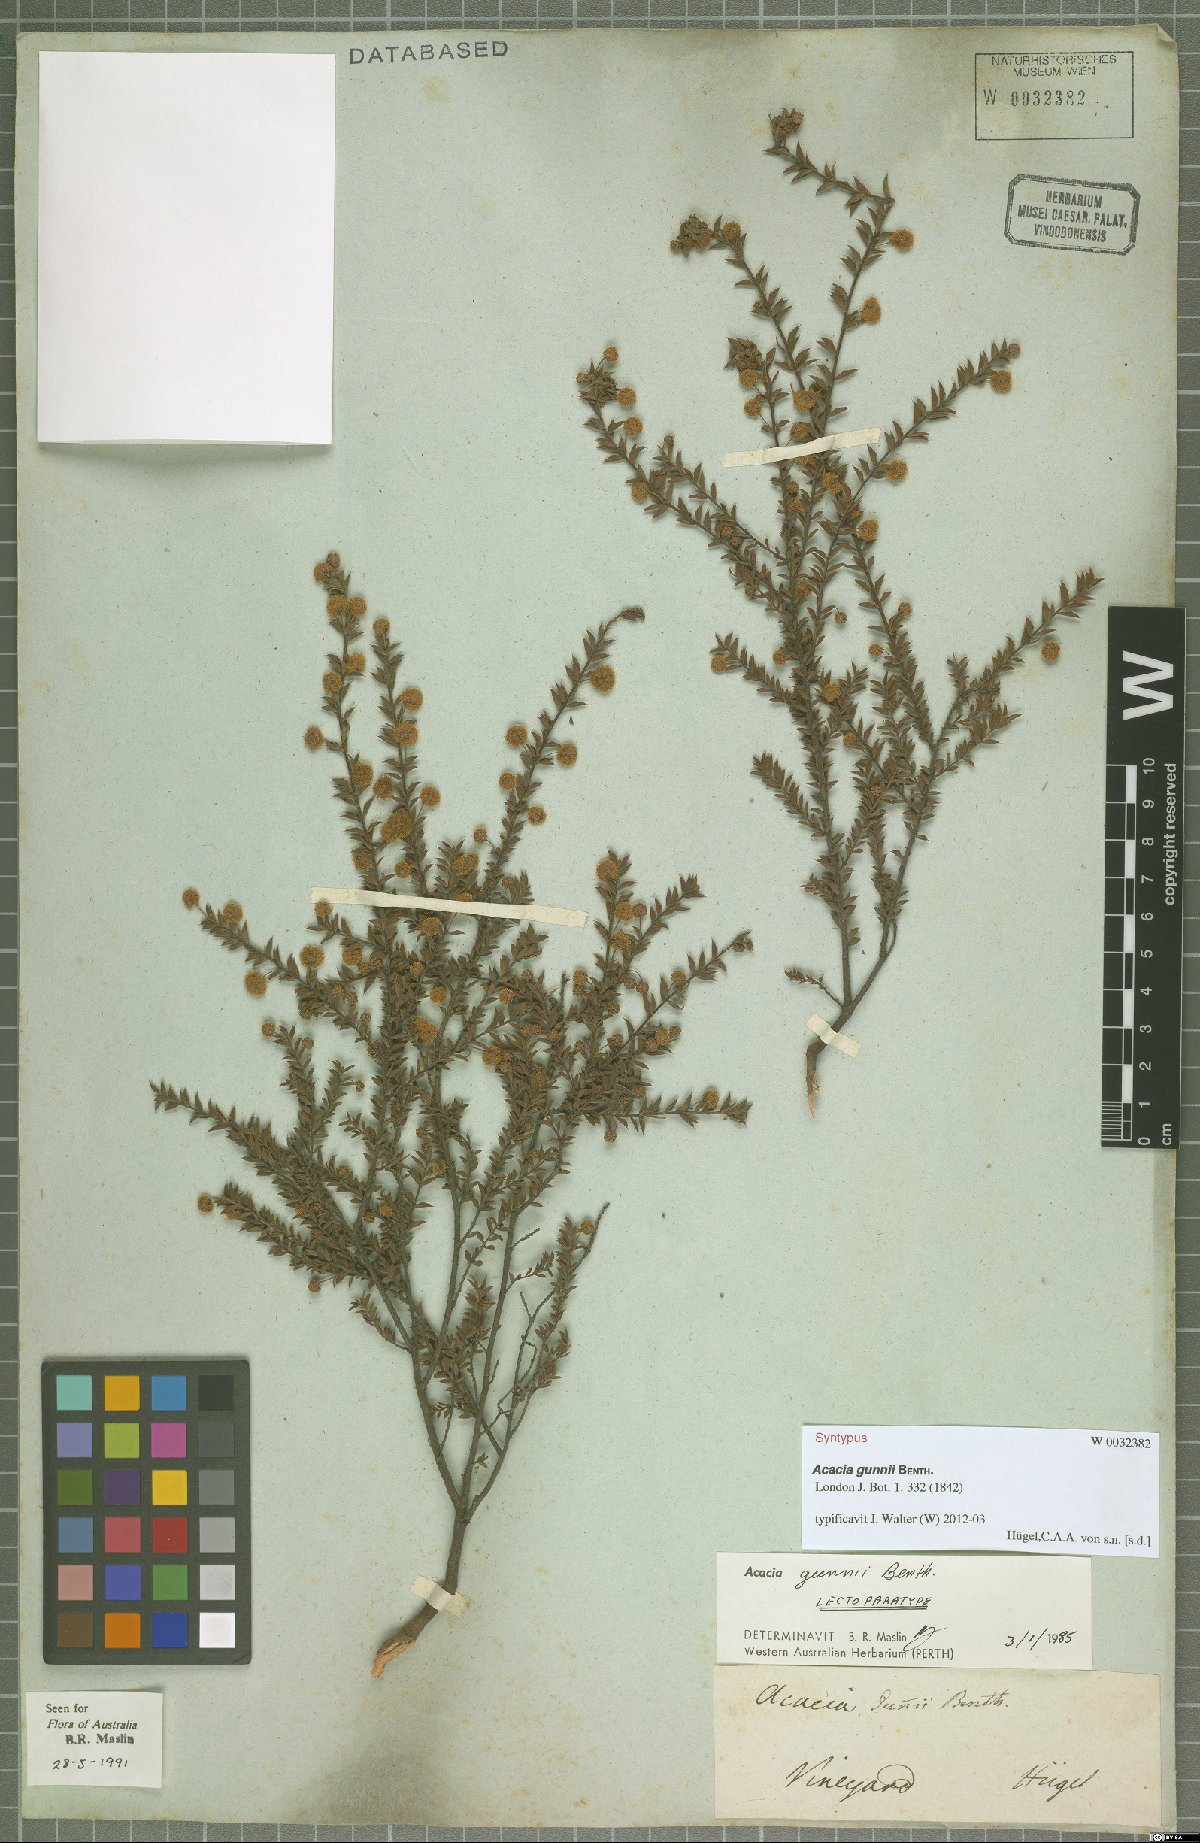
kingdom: Plantae
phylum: Tracheophyta
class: Magnoliopsida
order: Fabales
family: Fabaceae
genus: Acacia
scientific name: Acacia gunnii
